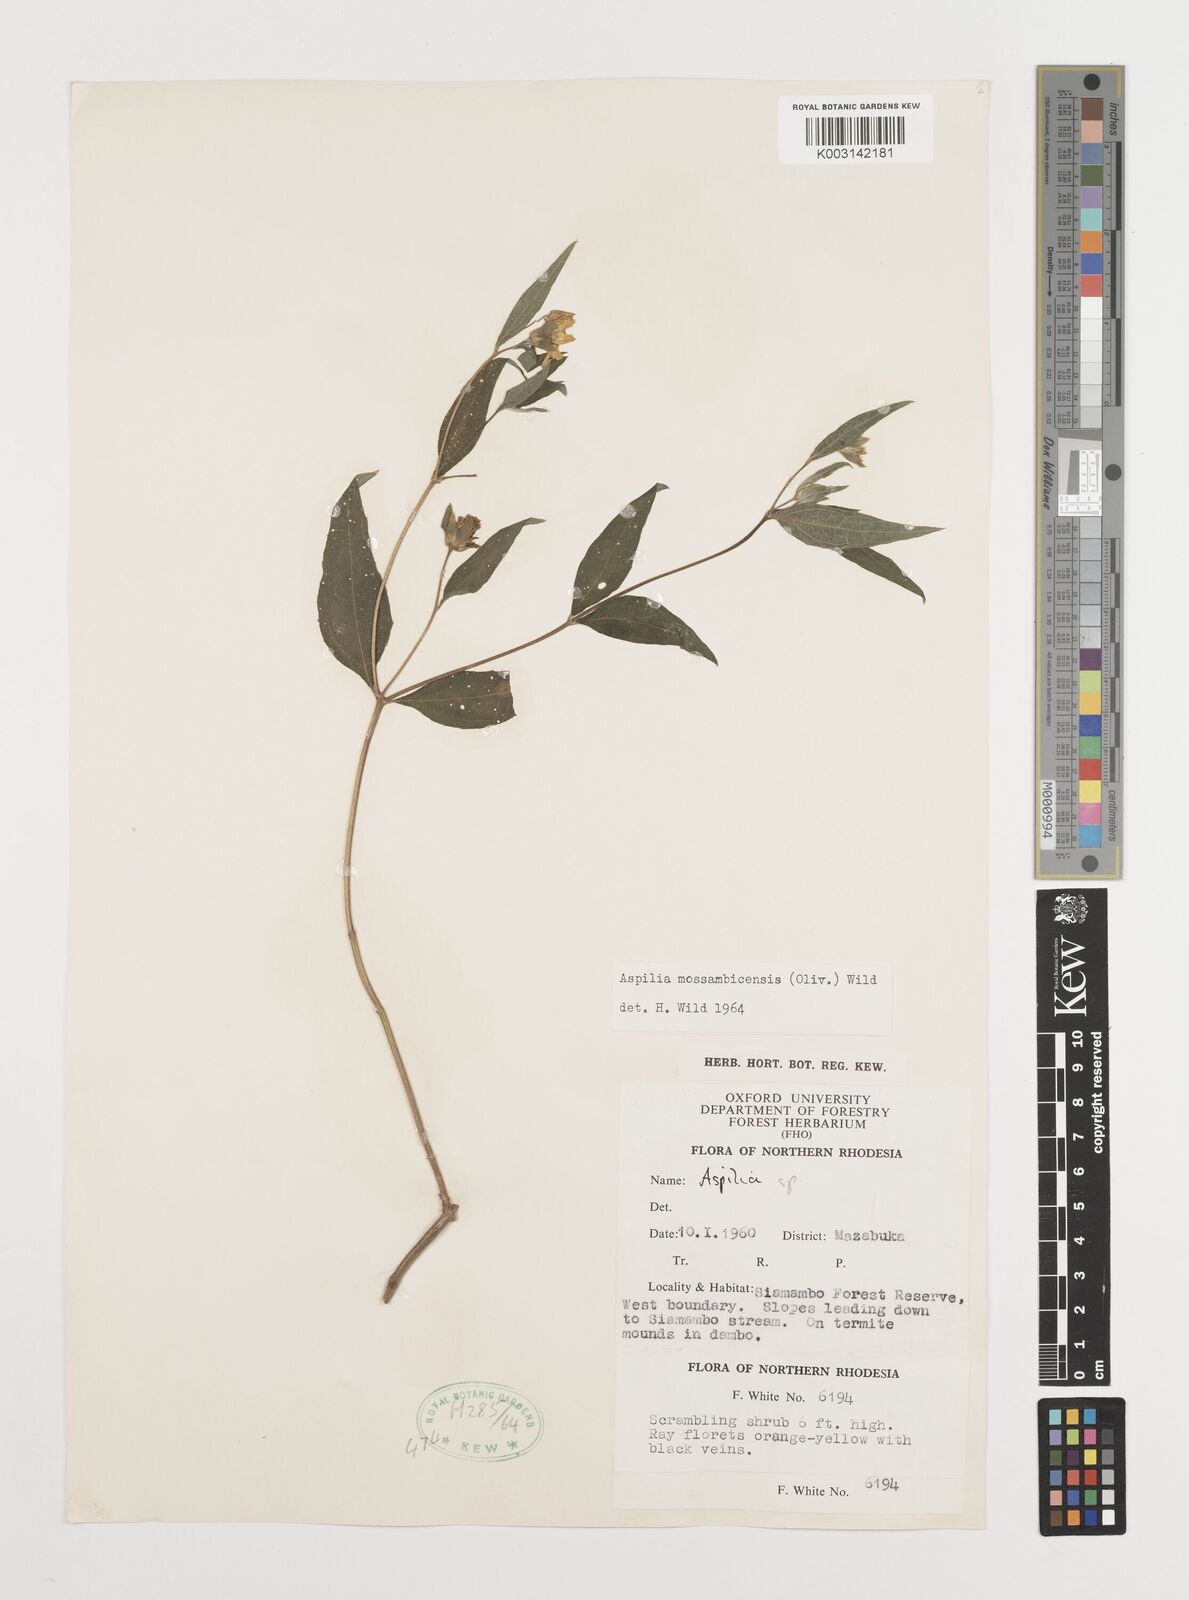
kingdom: Plantae
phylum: Tracheophyta
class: Magnoliopsida
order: Asterales
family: Asteraceae
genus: Aspilia
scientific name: Aspilia mossambicensis
